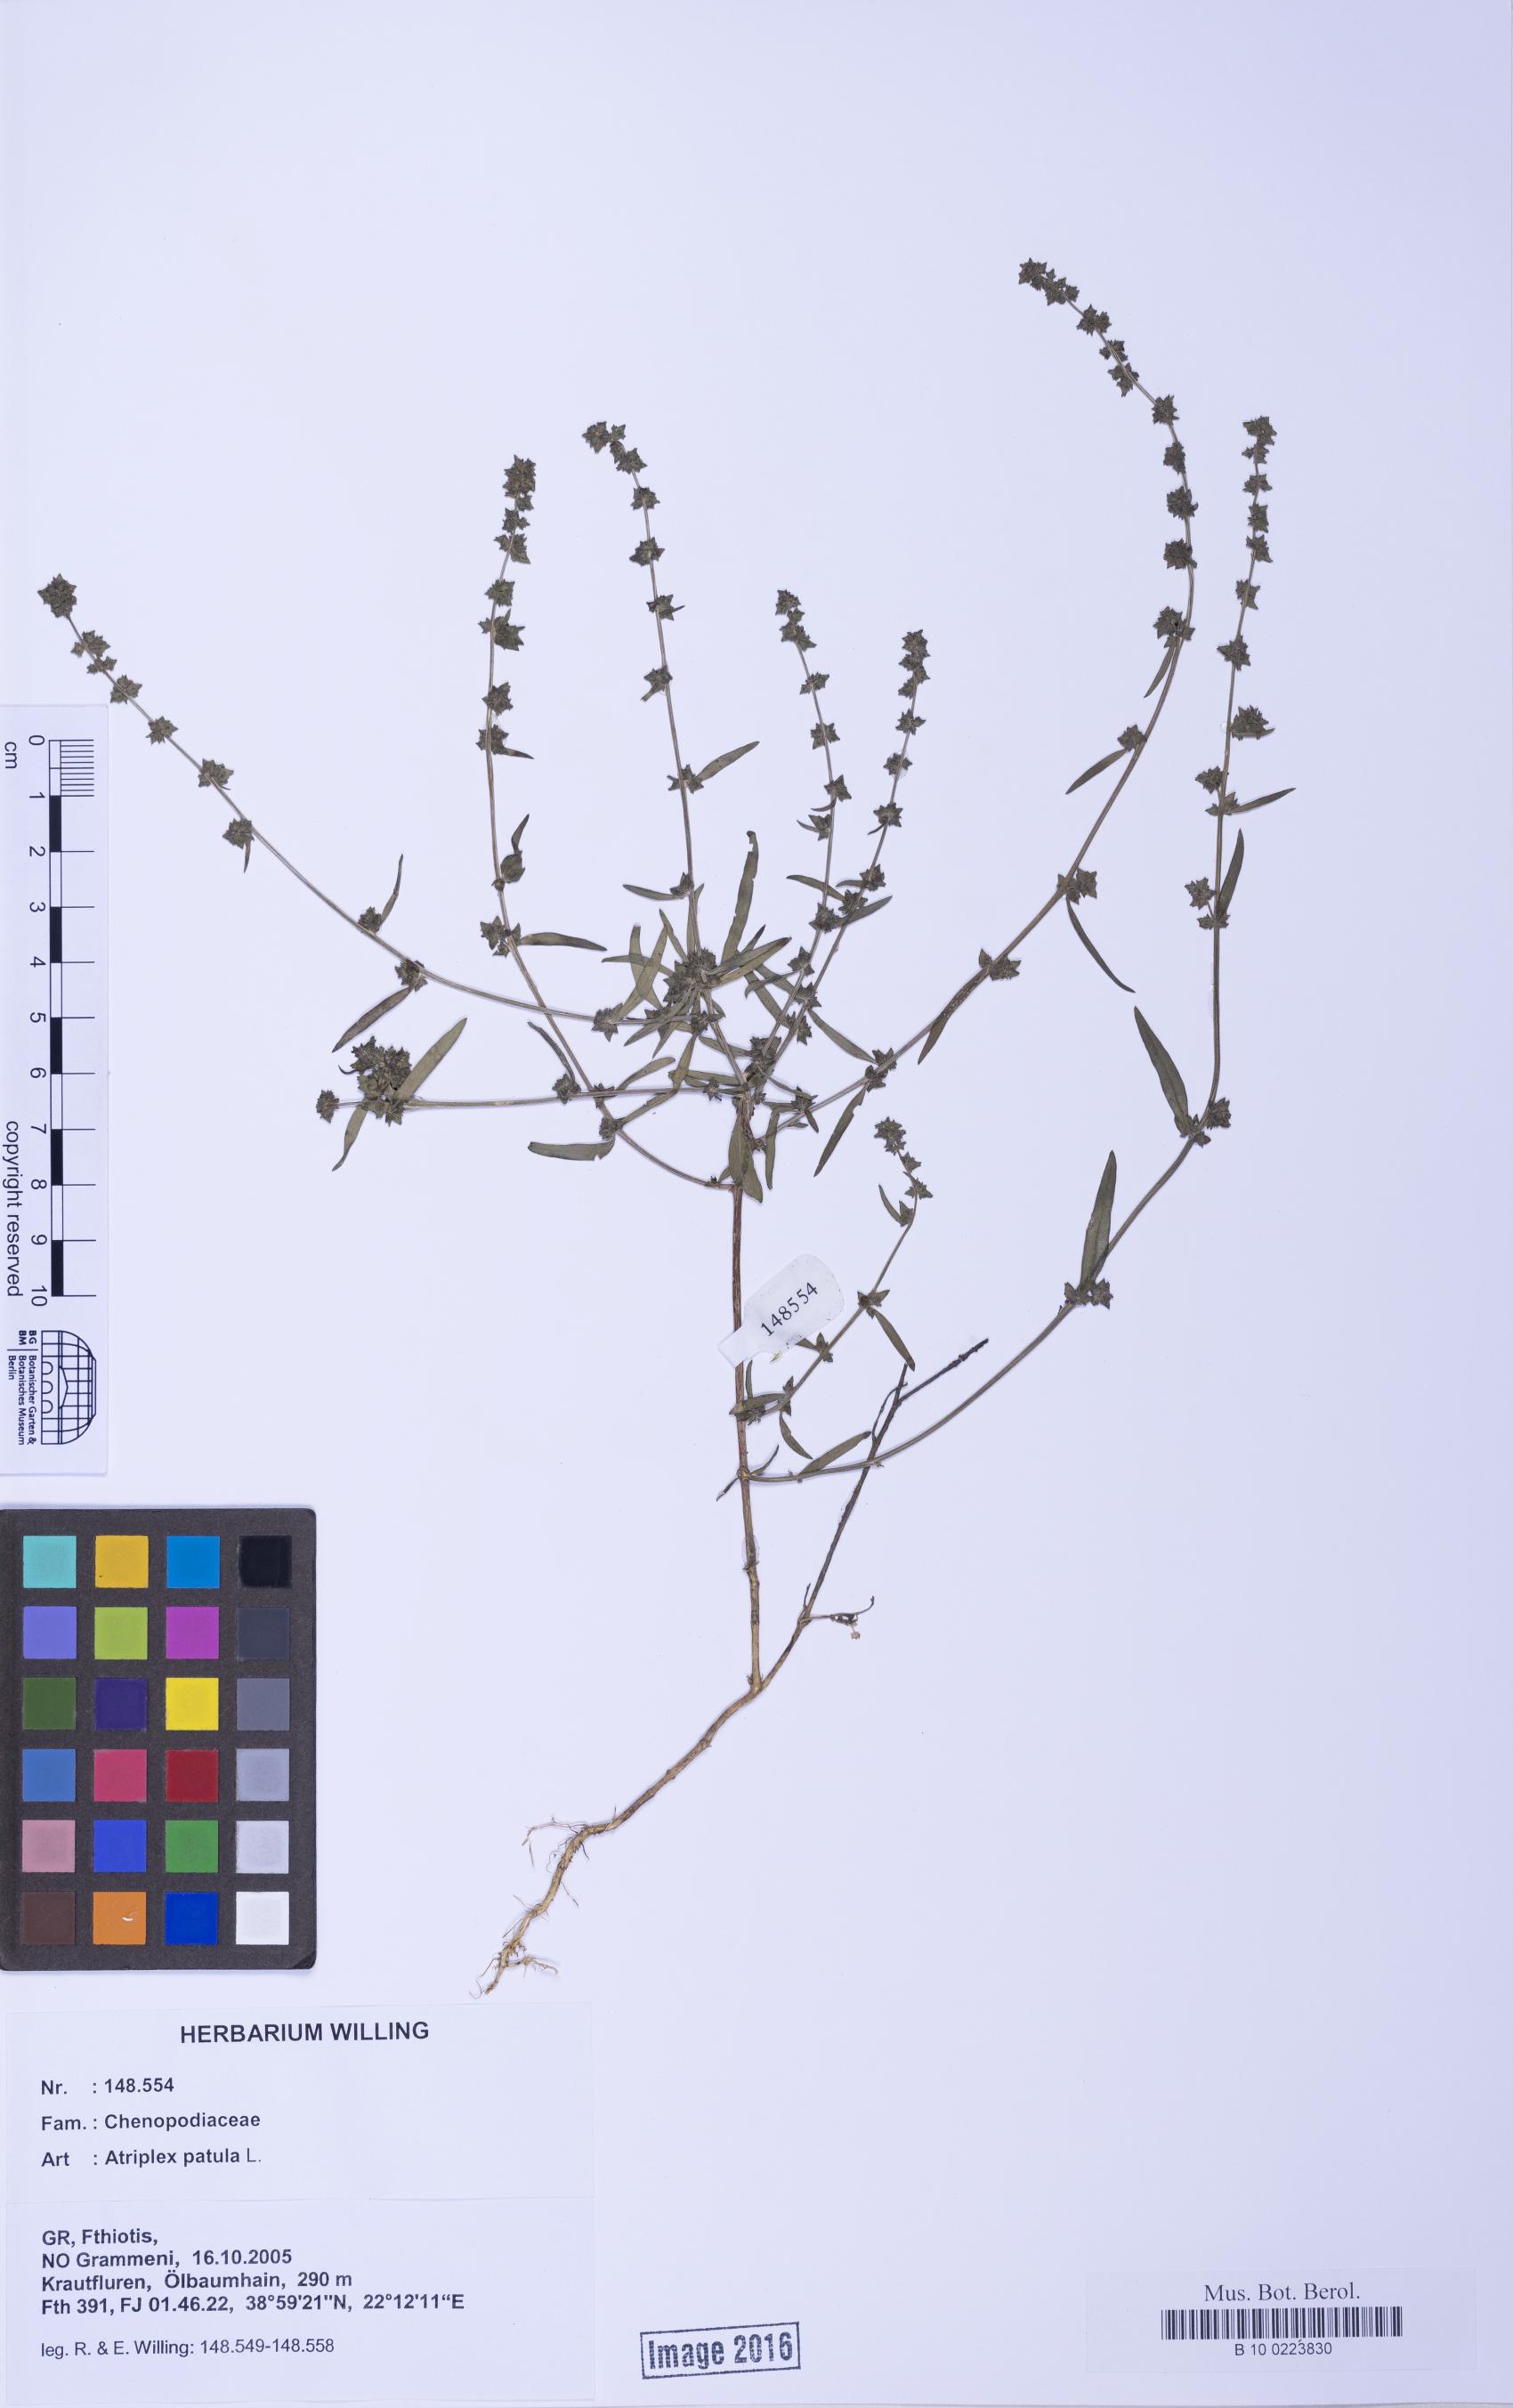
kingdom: Plantae
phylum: Tracheophyta
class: Magnoliopsida
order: Caryophyllales
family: Amaranthaceae
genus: Atriplex
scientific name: Atriplex patula
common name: Common orache
